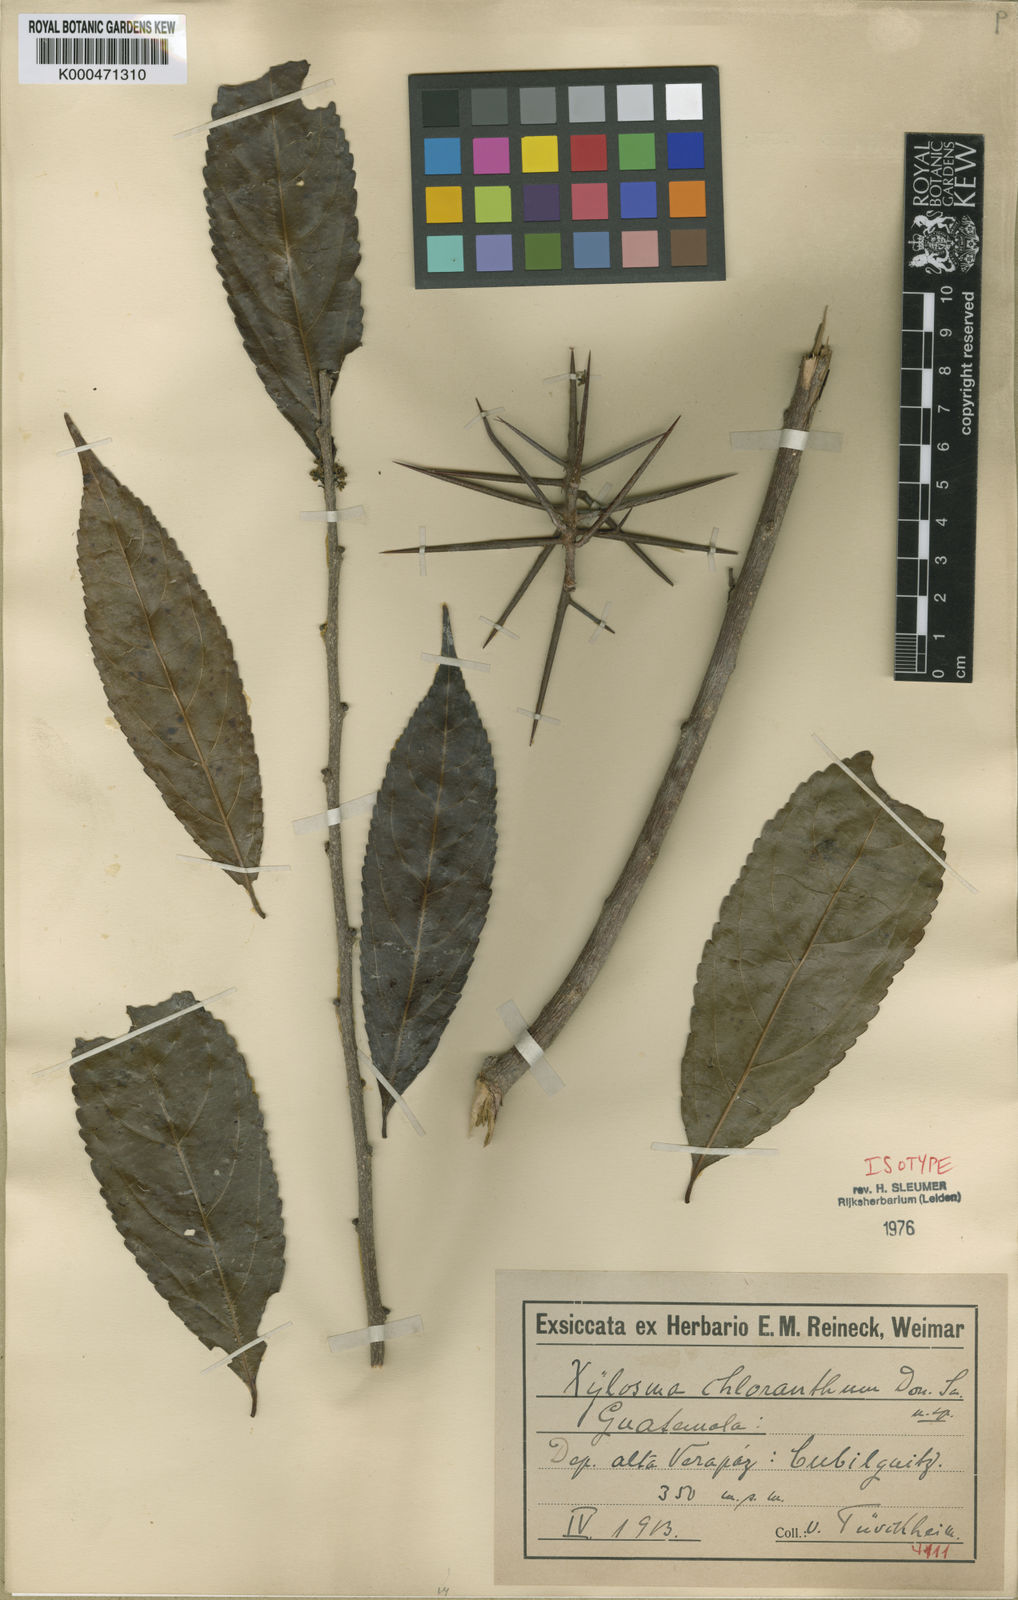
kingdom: Plantae
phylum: Tracheophyta
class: Magnoliopsida
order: Malpighiales
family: Salicaceae
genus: Xylosma
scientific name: Xylosma chlorantha
